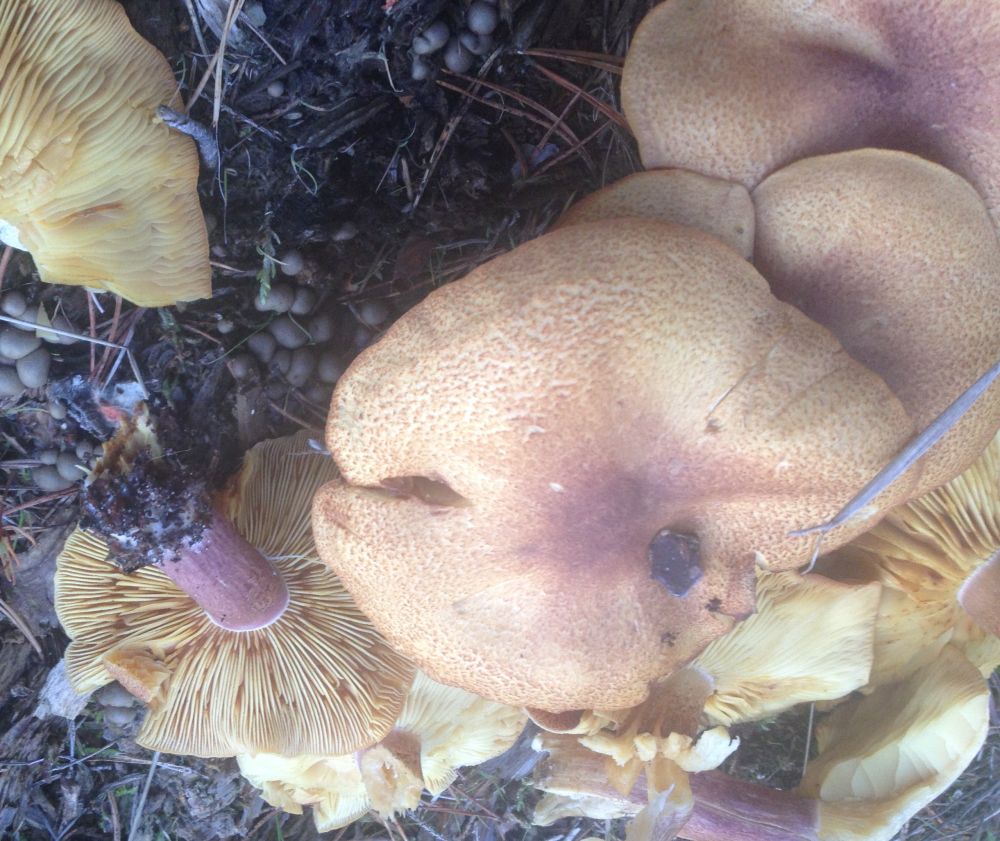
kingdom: Fungi
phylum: Basidiomycota
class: Agaricomycetes
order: Agaricales
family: Tricholomataceae
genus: Tricholomopsis
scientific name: Tricholomopsis rutilans
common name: purpur-væbnerhat
